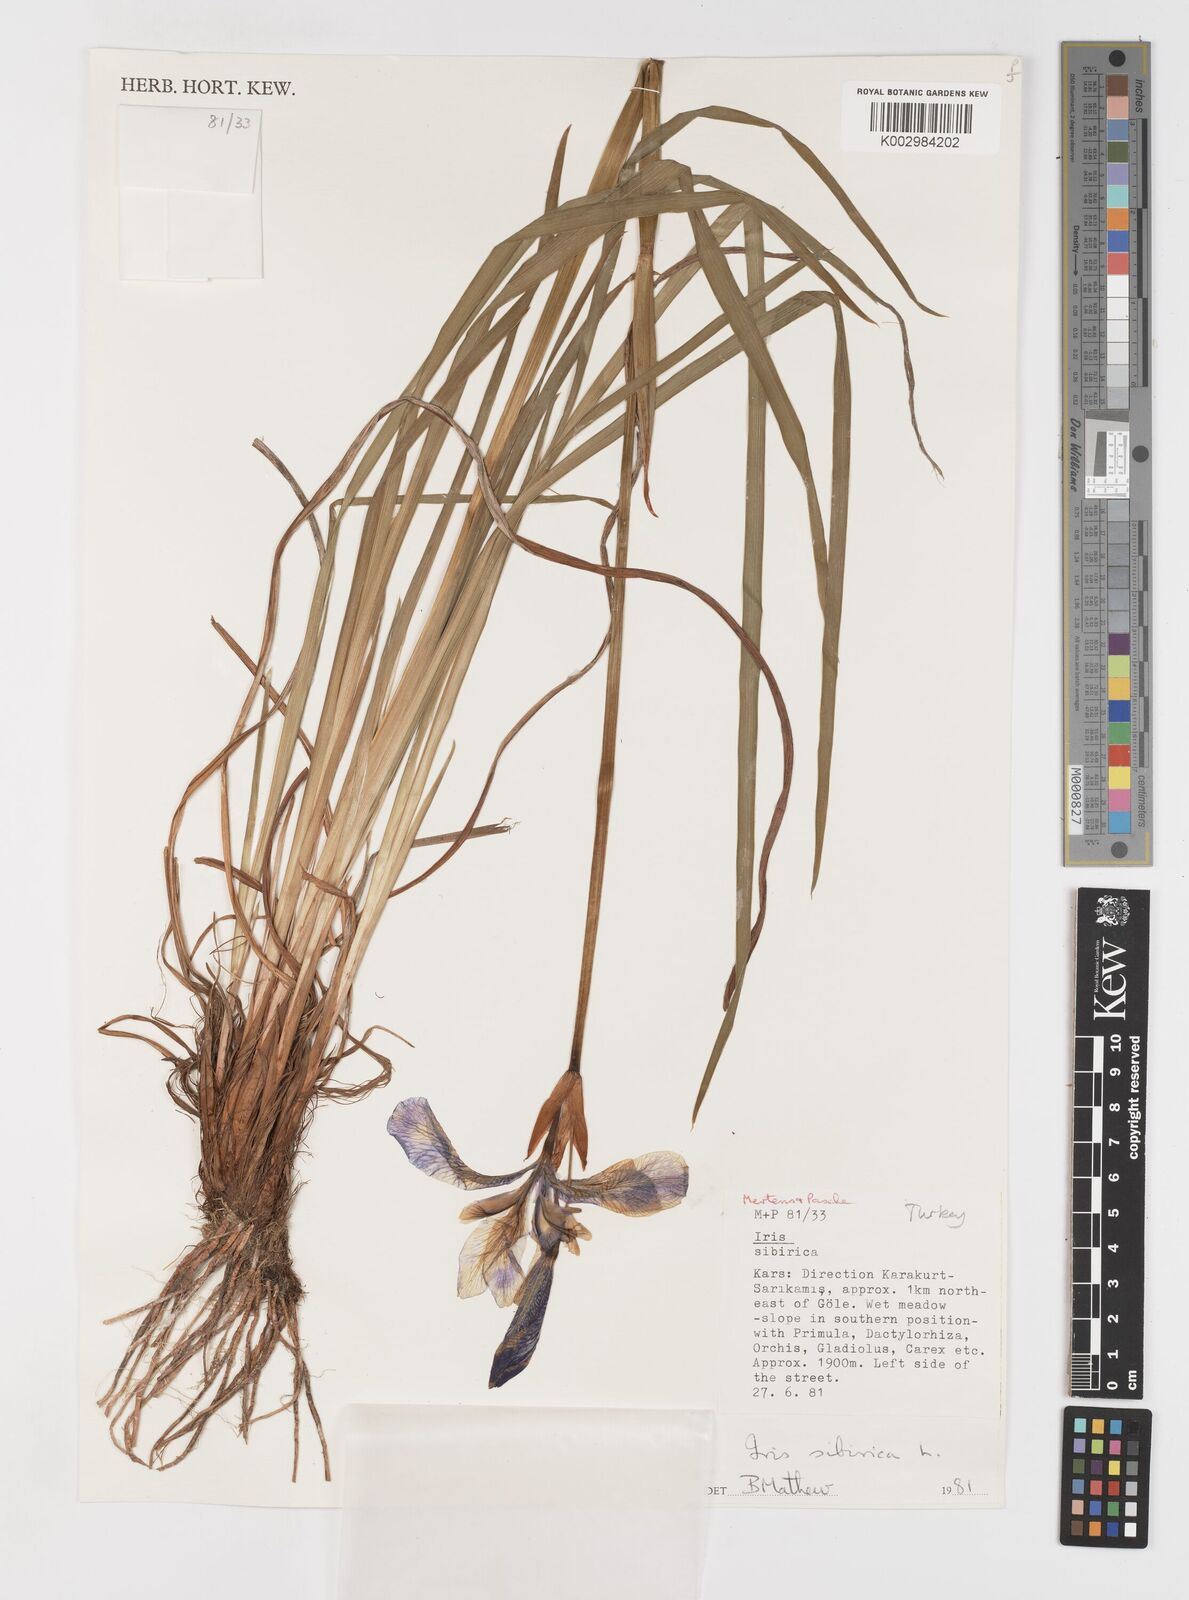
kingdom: Plantae
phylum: Tracheophyta
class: Liliopsida
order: Asparagales
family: Iridaceae
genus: Iris
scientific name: Iris sibirica
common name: Siberian iris
